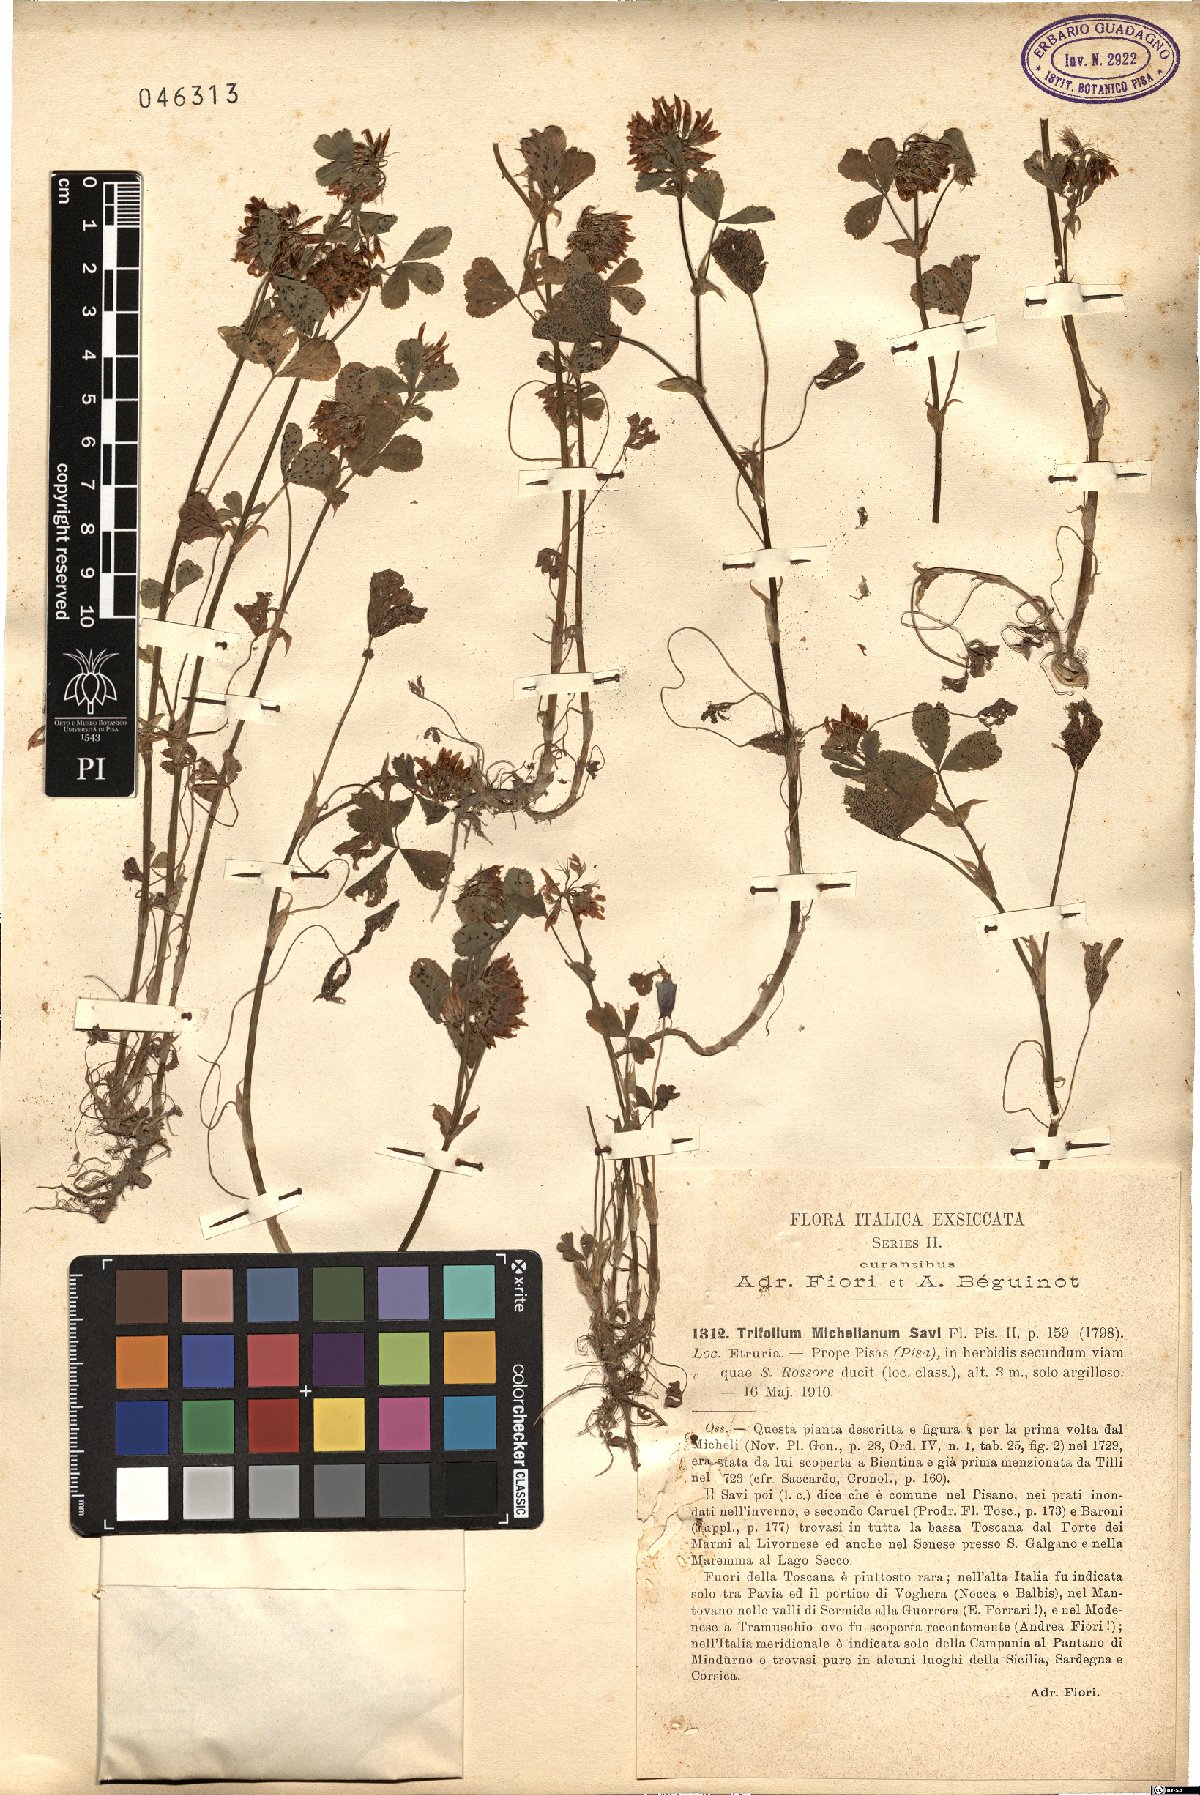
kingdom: Plantae
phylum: Tracheophyta
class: Magnoliopsida
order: Fabales
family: Fabaceae
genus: Trifolium
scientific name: Trifolium michelianum
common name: Bigflower clover
